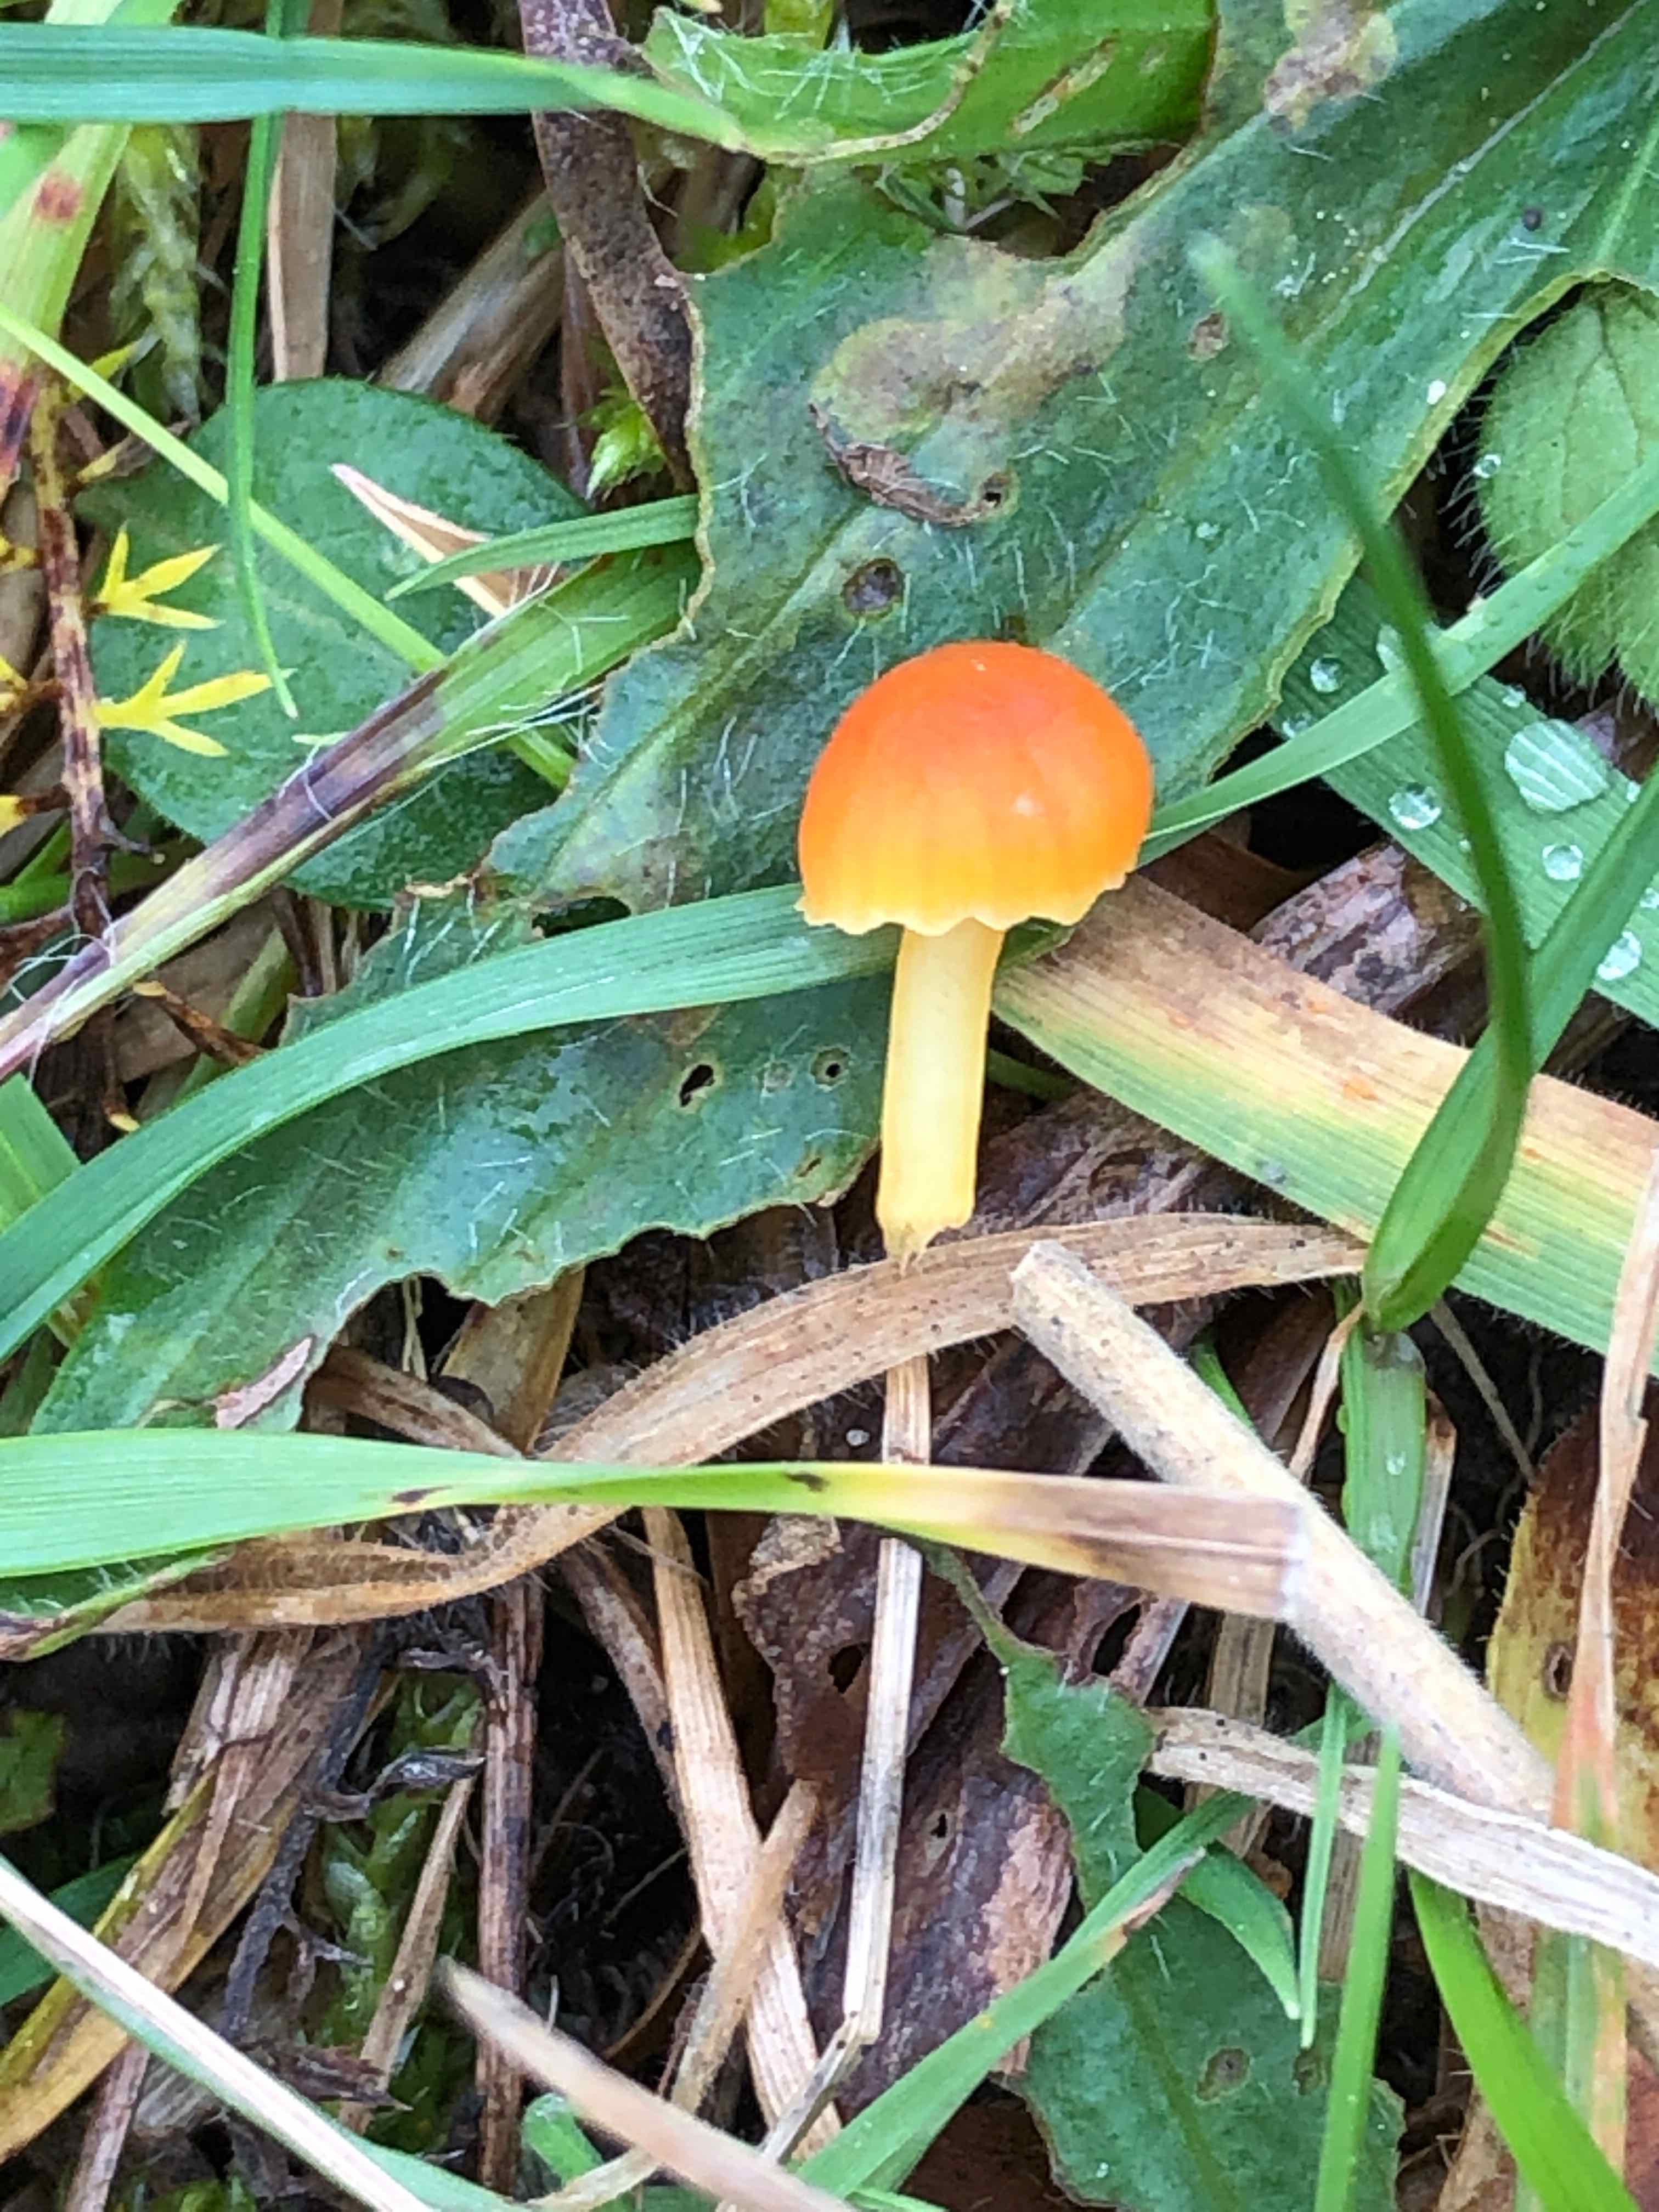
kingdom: Fungi
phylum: Basidiomycota
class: Agaricomycetes
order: Agaricales
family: Hygrophoraceae
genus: Hygrocybe
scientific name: Hygrocybe mucronella
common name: bitter vokshat
